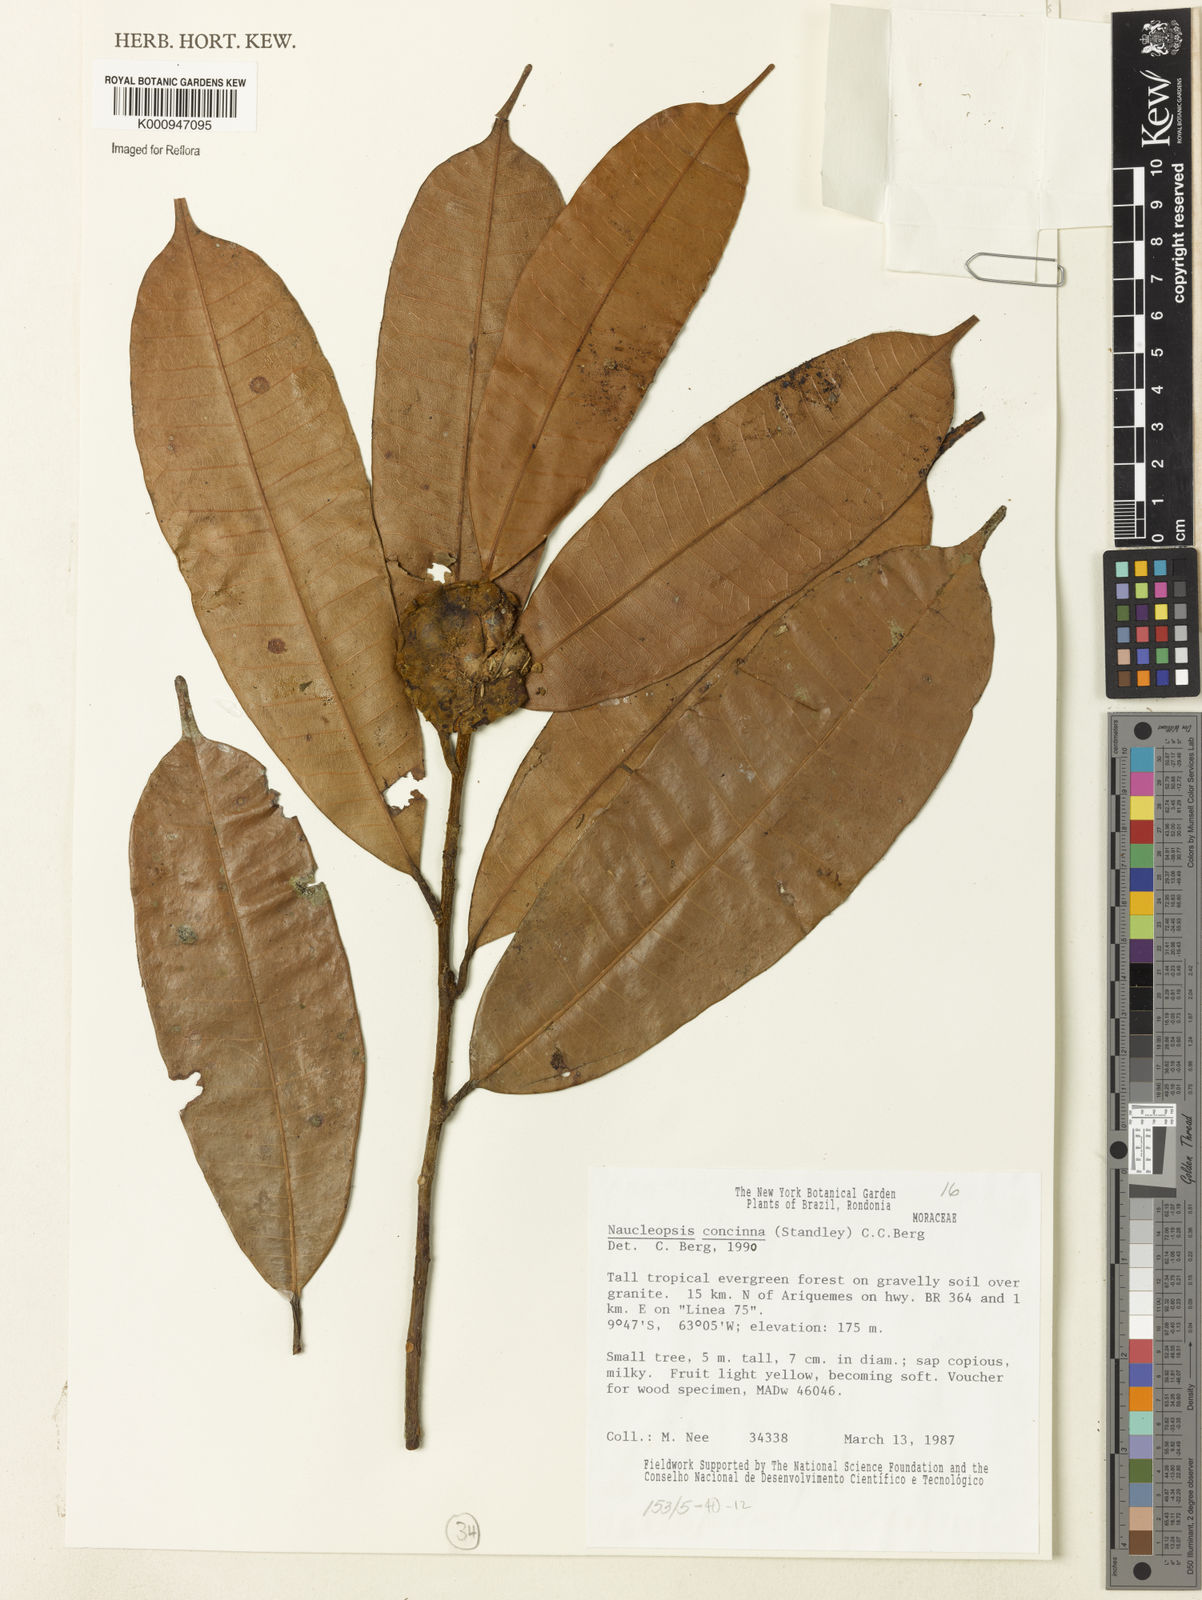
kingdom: Plantae
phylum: Tracheophyta
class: Magnoliopsida
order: Rosales
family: Moraceae
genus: Naucleopsis
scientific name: Naucleopsis concinna
